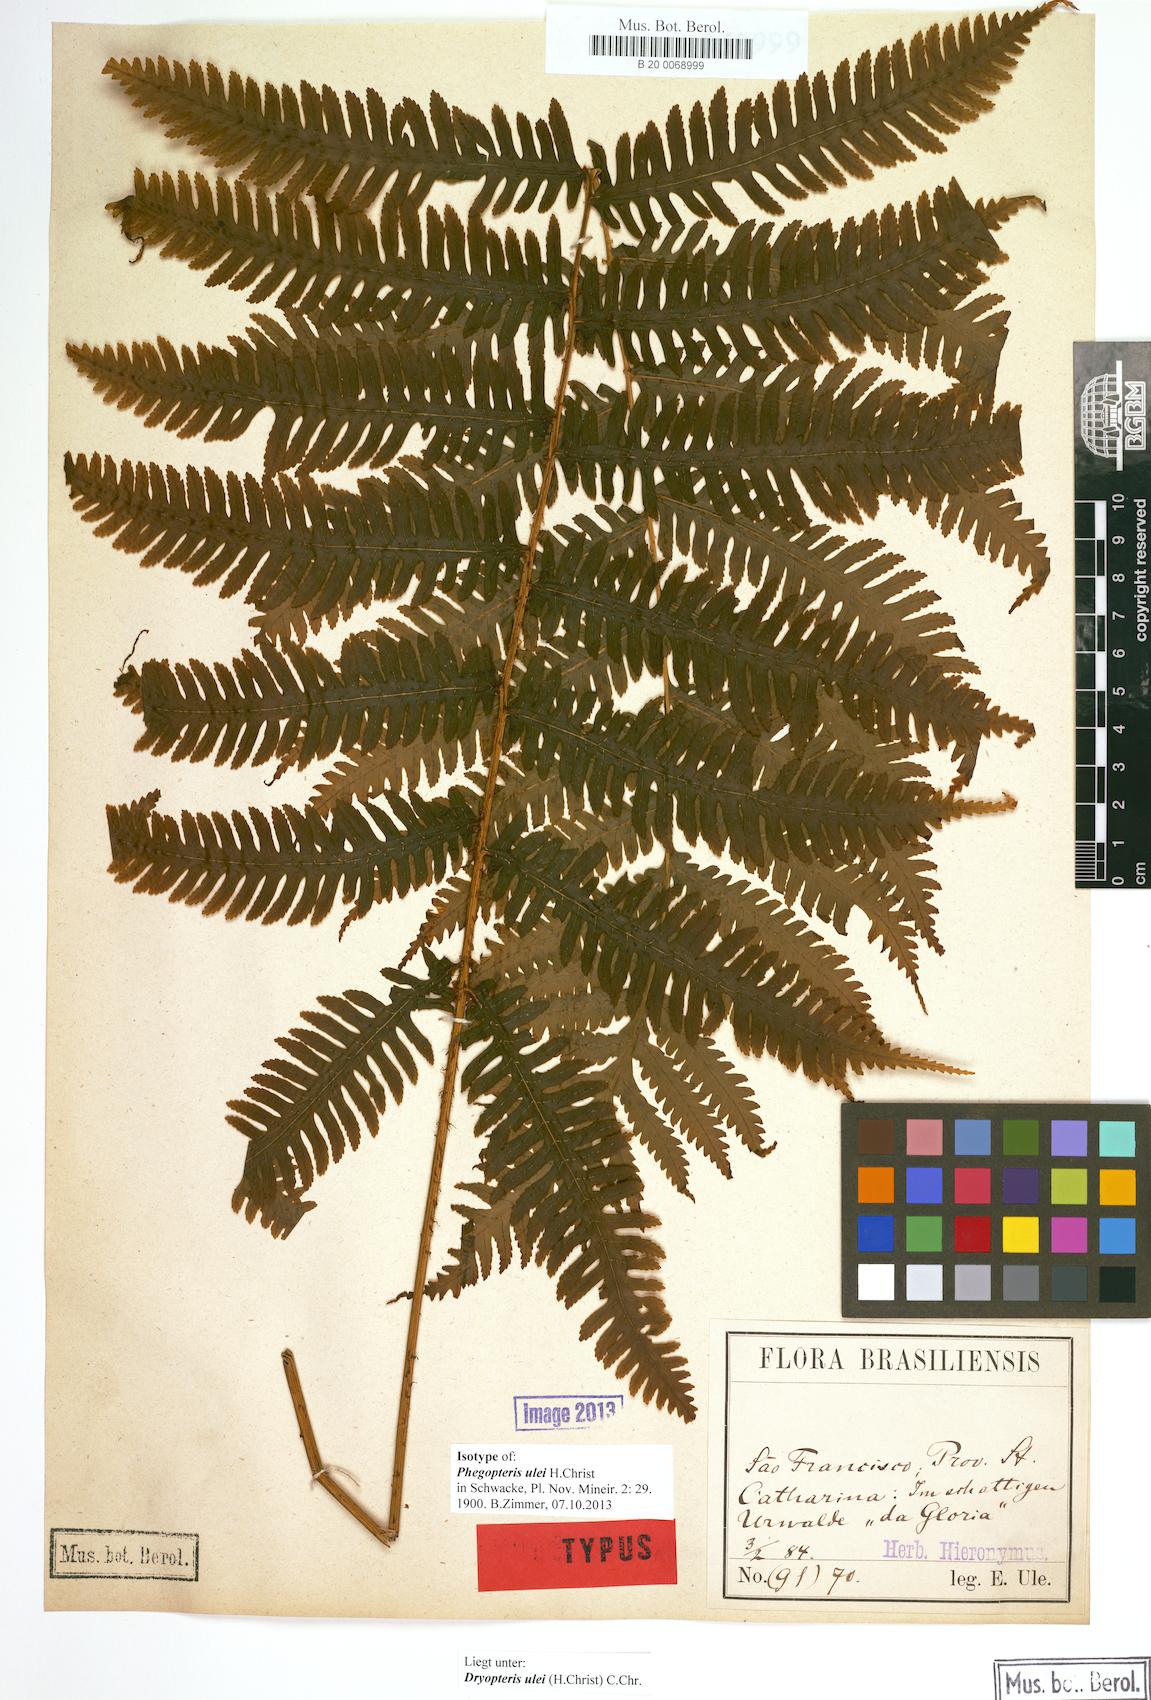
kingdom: Plantae
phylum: Tracheophyta
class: Polypodiopsida
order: Polypodiales
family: Dryopteridaceae
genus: Stigmatopteris
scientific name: Stigmatopteris ulei
